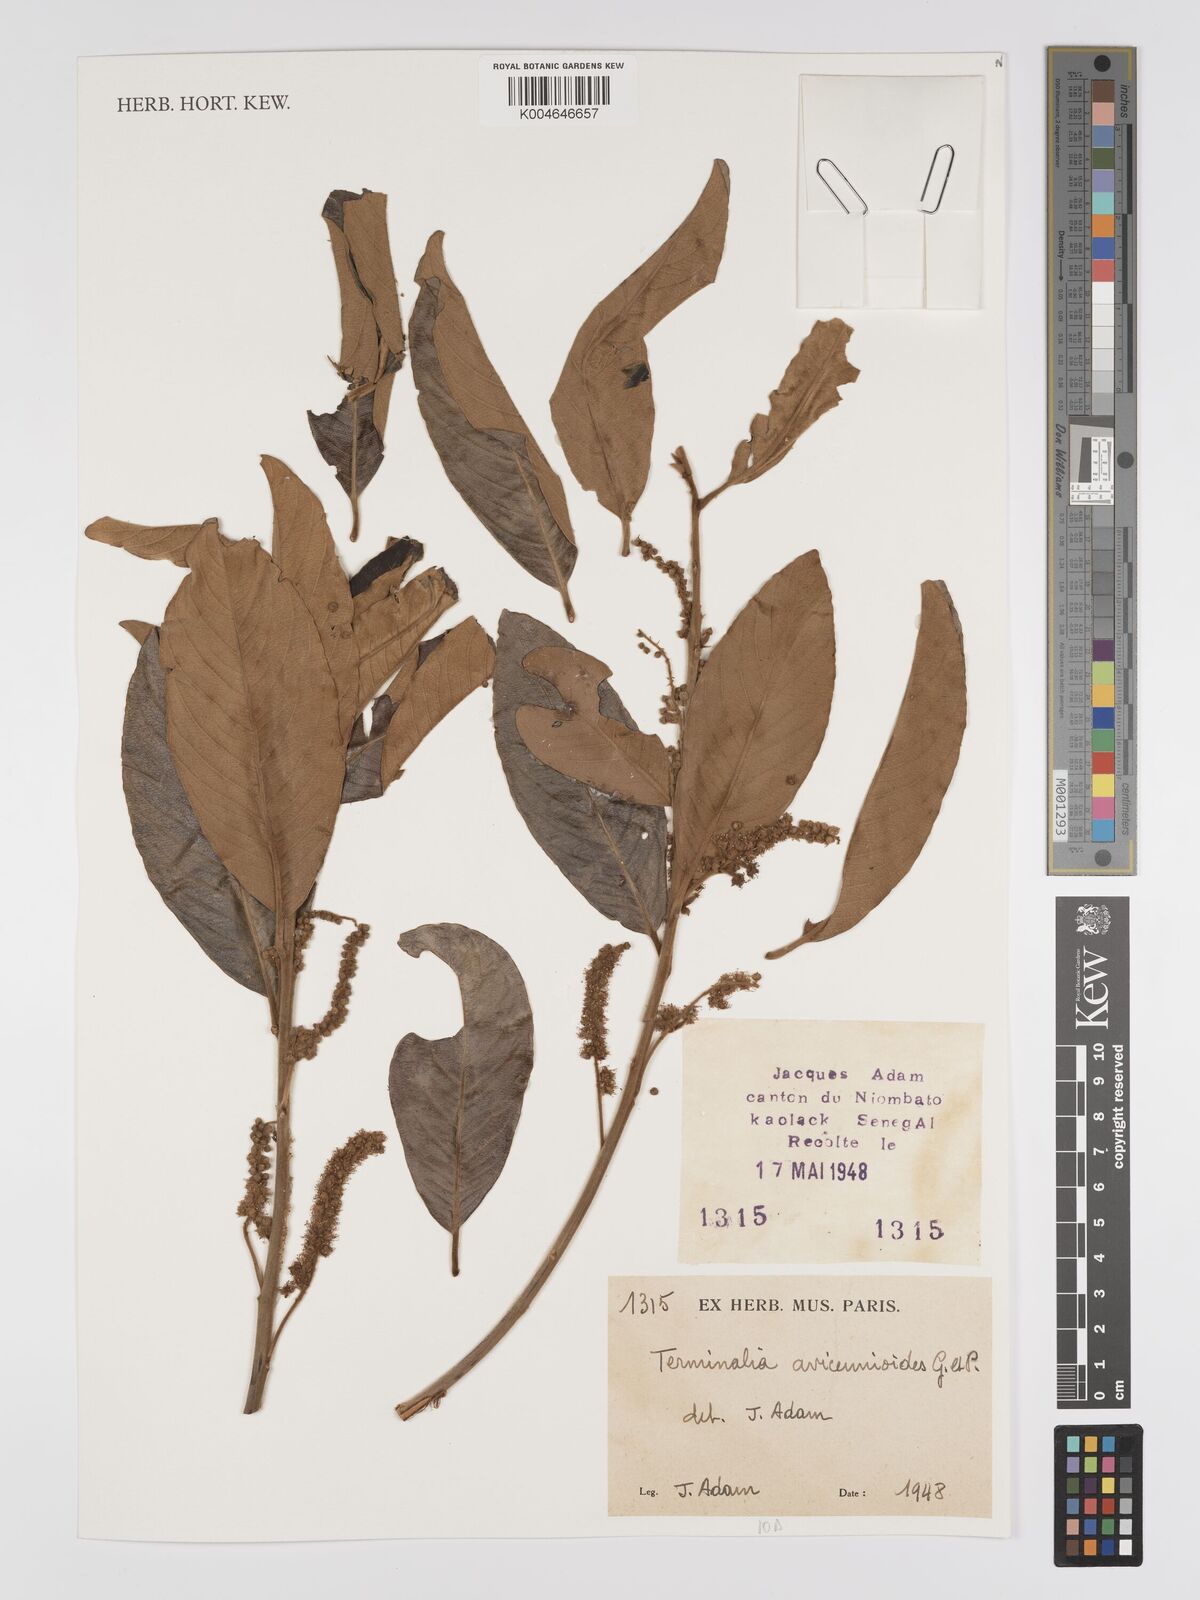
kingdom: Plantae
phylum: Tracheophyta
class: Magnoliopsida
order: Myrtales
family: Combretaceae
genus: Terminalia
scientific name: Terminalia avicennioides
